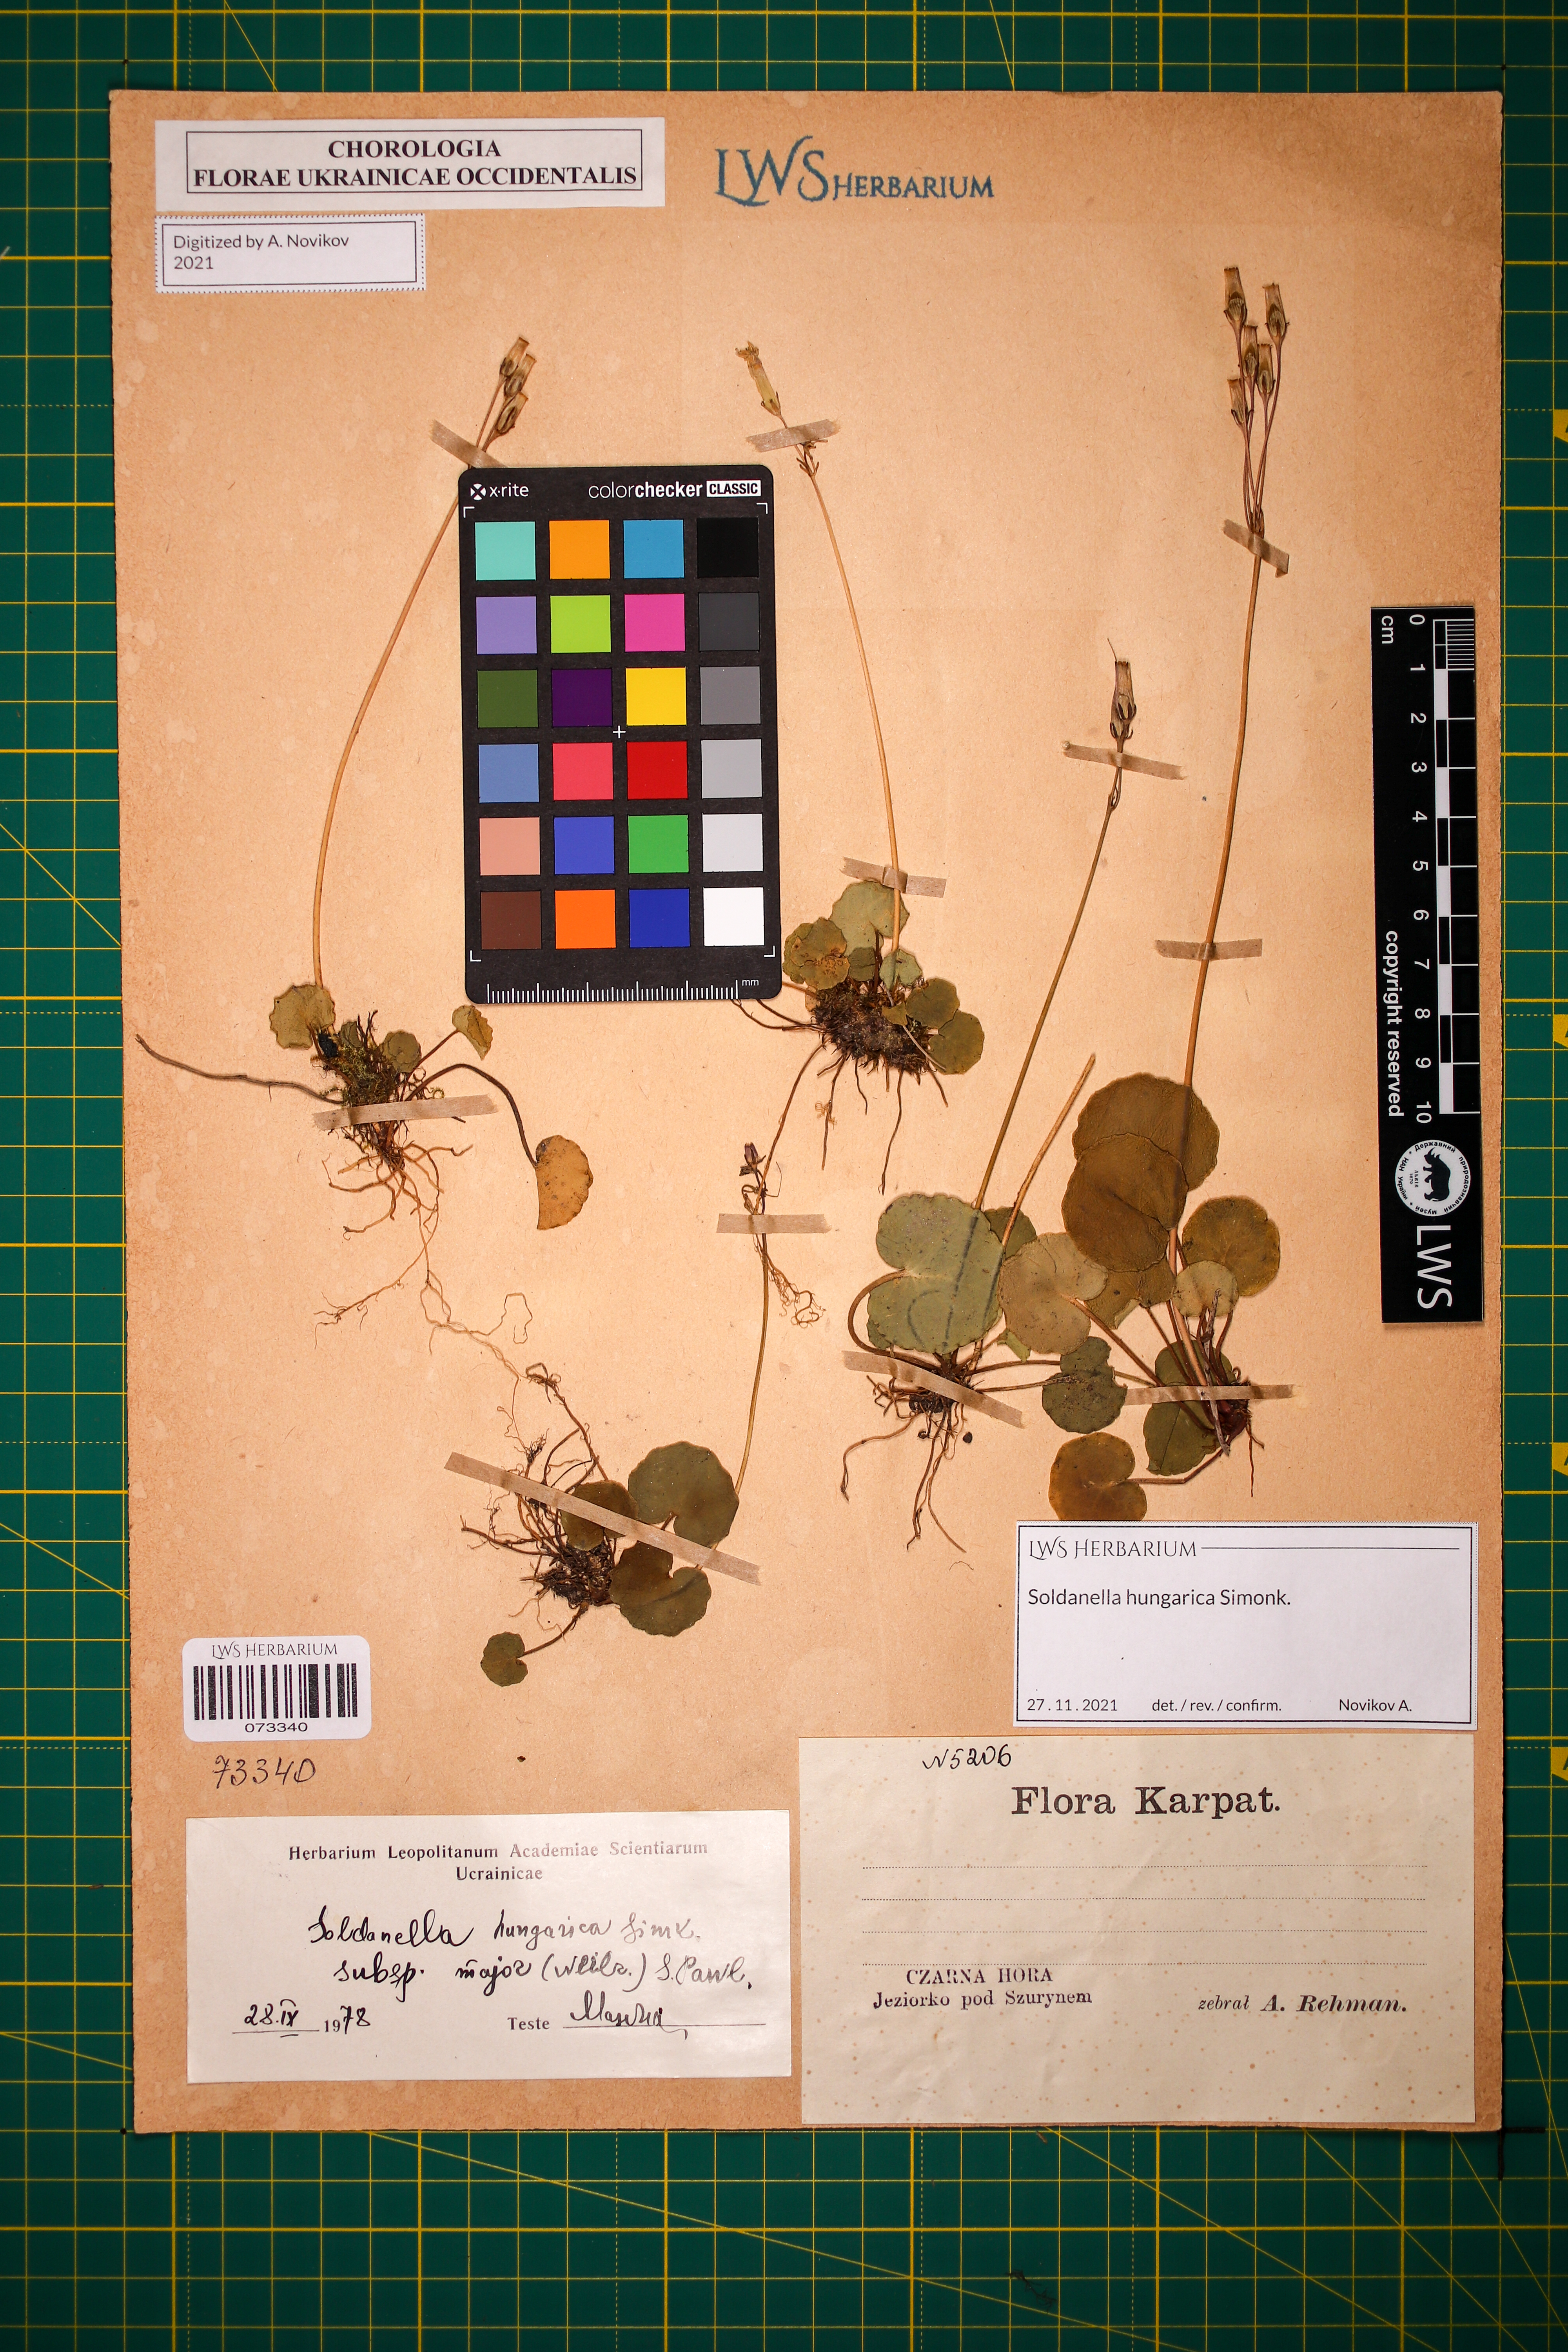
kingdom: Plantae
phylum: Tracheophyta
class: Magnoliopsida
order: Ericales
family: Primulaceae
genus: Soldanella
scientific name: Soldanella hungarica
